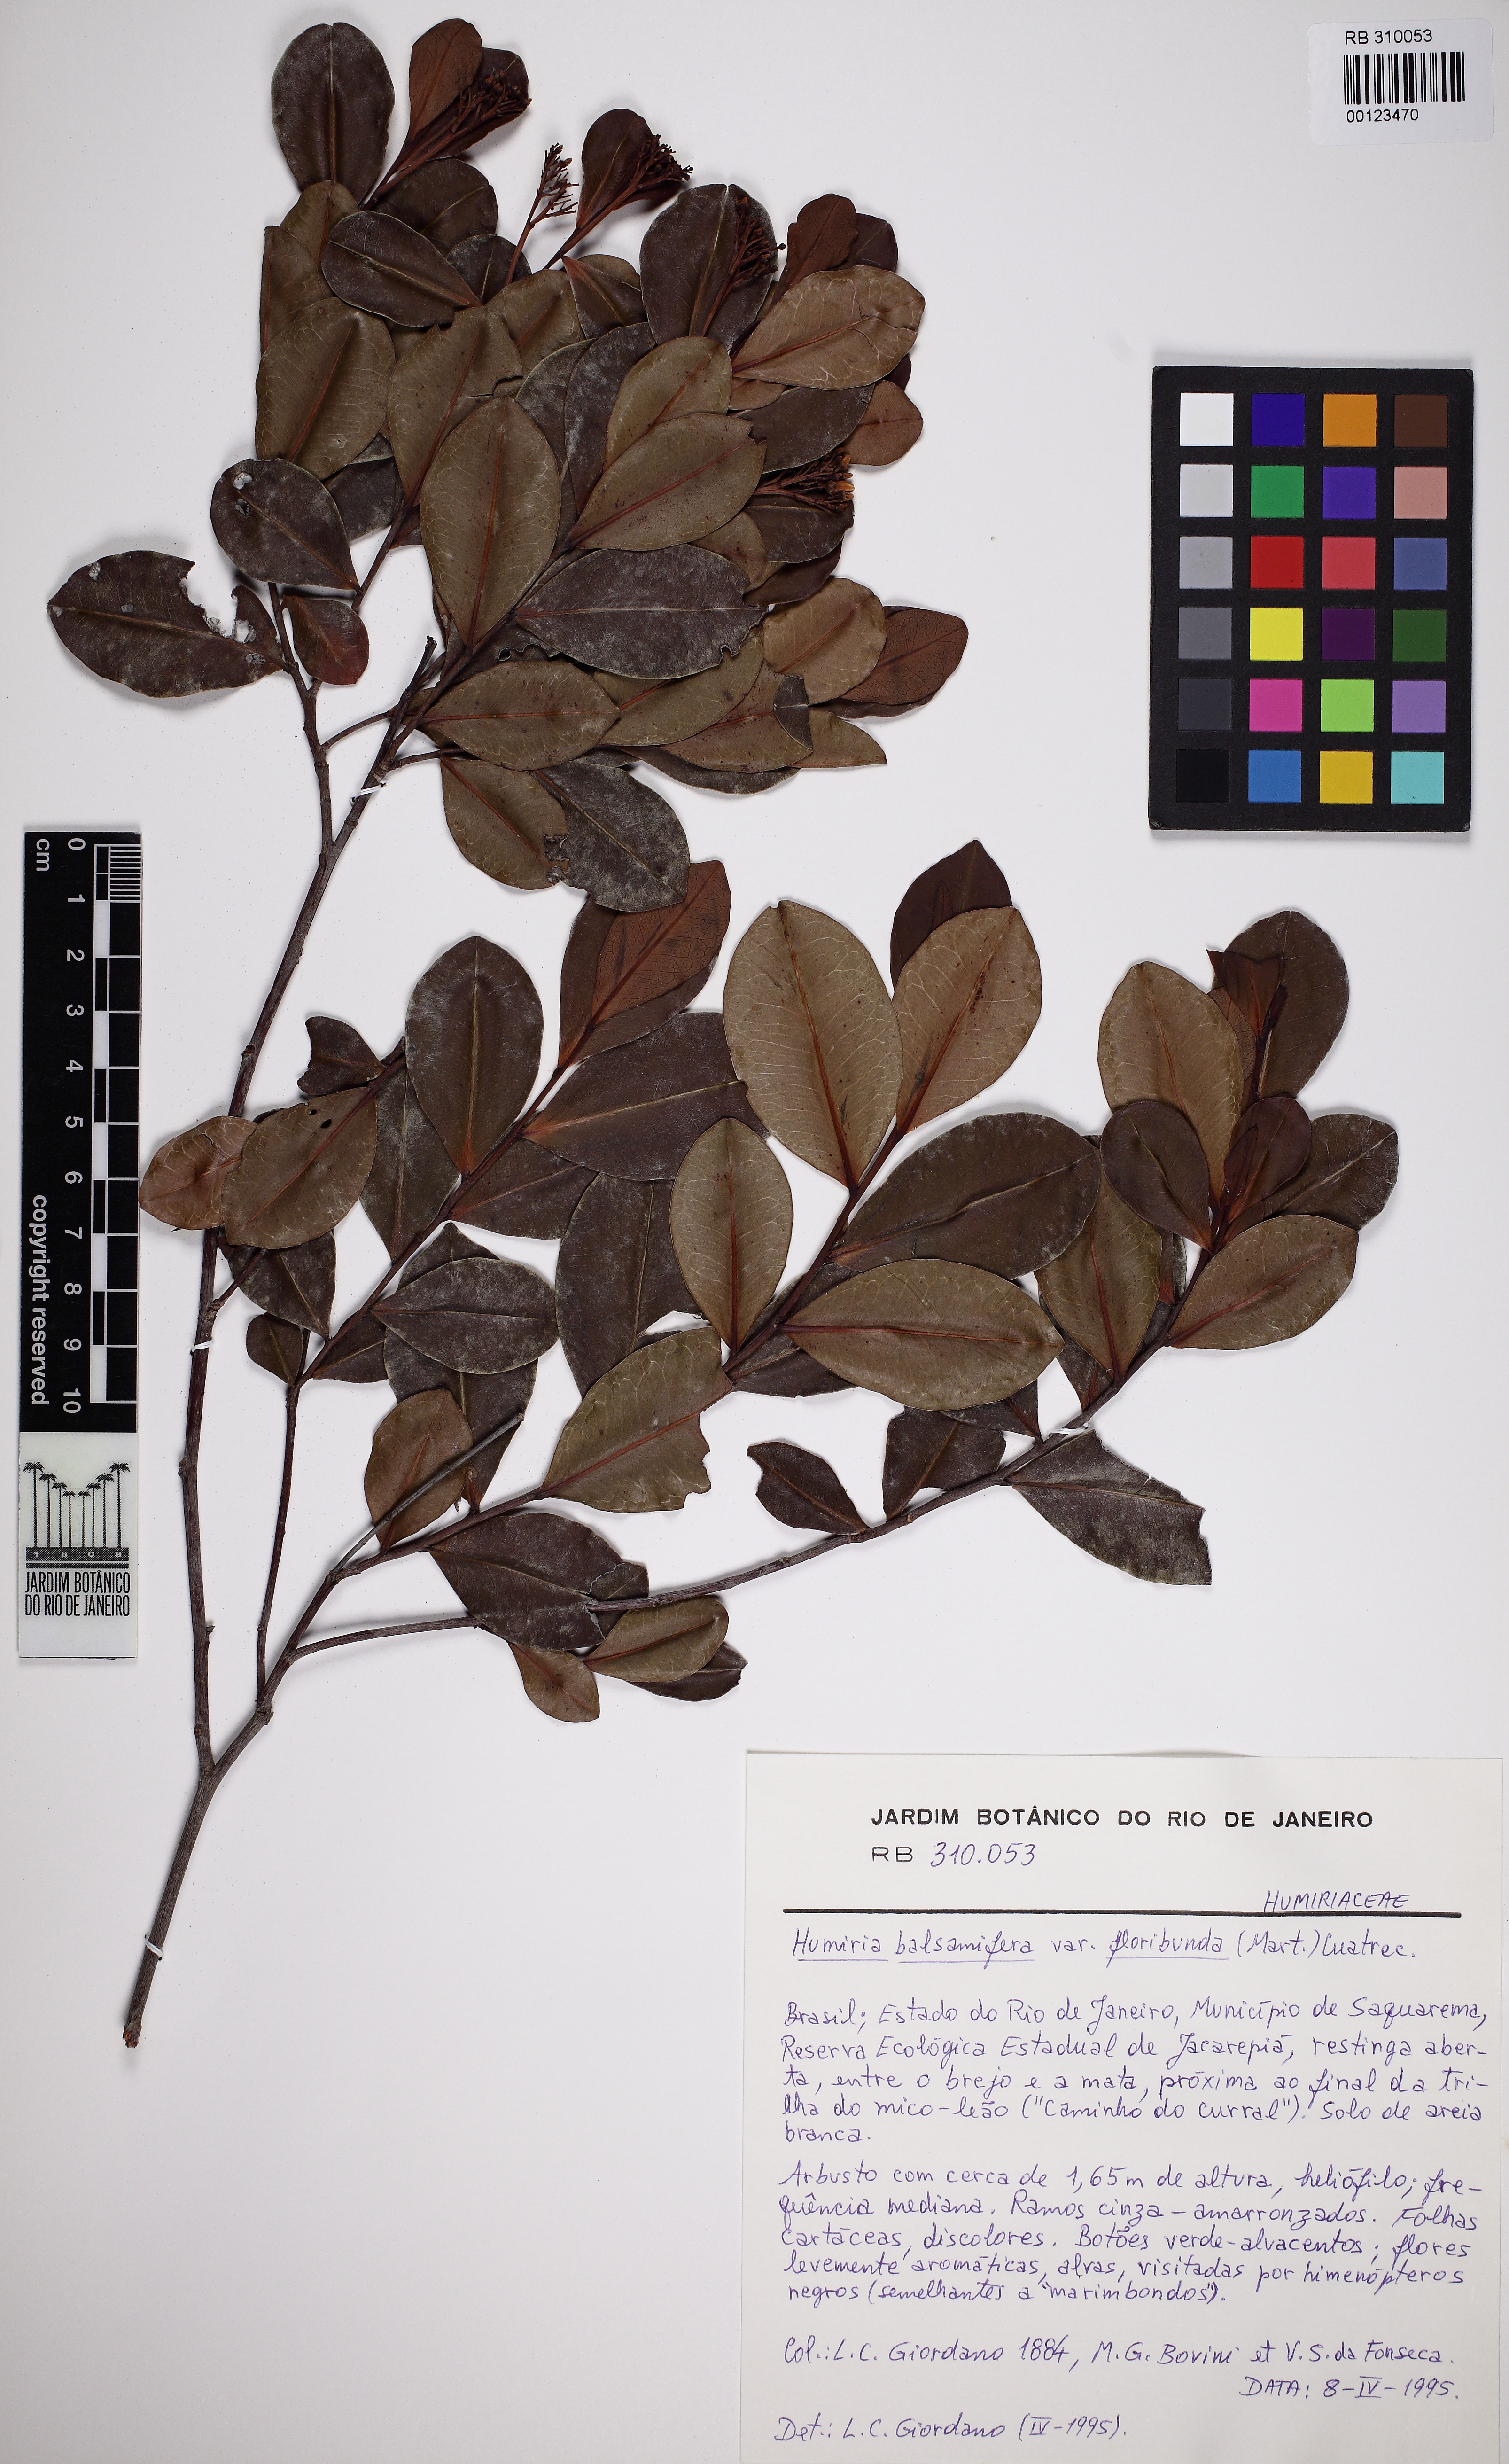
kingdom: Plantae
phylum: Tracheophyta
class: Magnoliopsida
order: Malpighiales
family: Humiriaceae
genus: Humiria
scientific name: Humiria balsamifera
